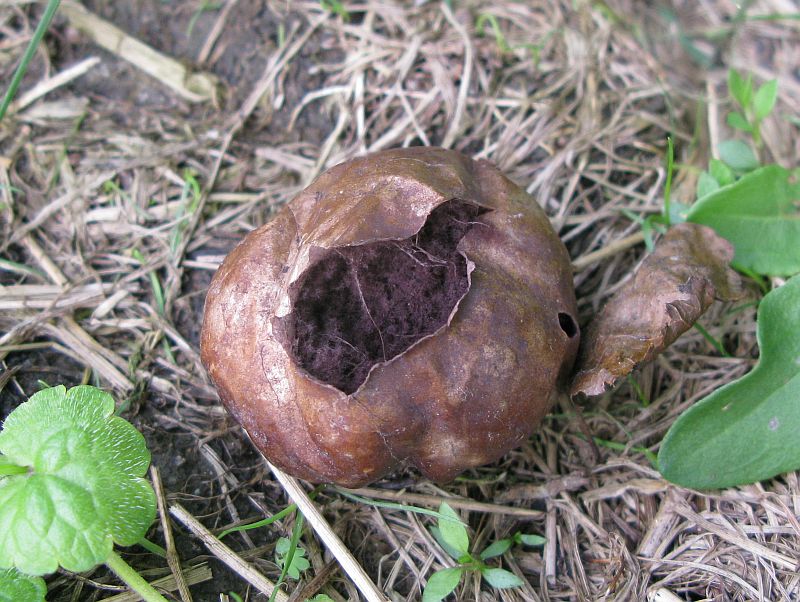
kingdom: Fungi
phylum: Basidiomycota
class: Agaricomycetes
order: Agaricales
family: Lycoperdaceae
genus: Bovista
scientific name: Bovista nigrescens
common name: sortagtig bovist
